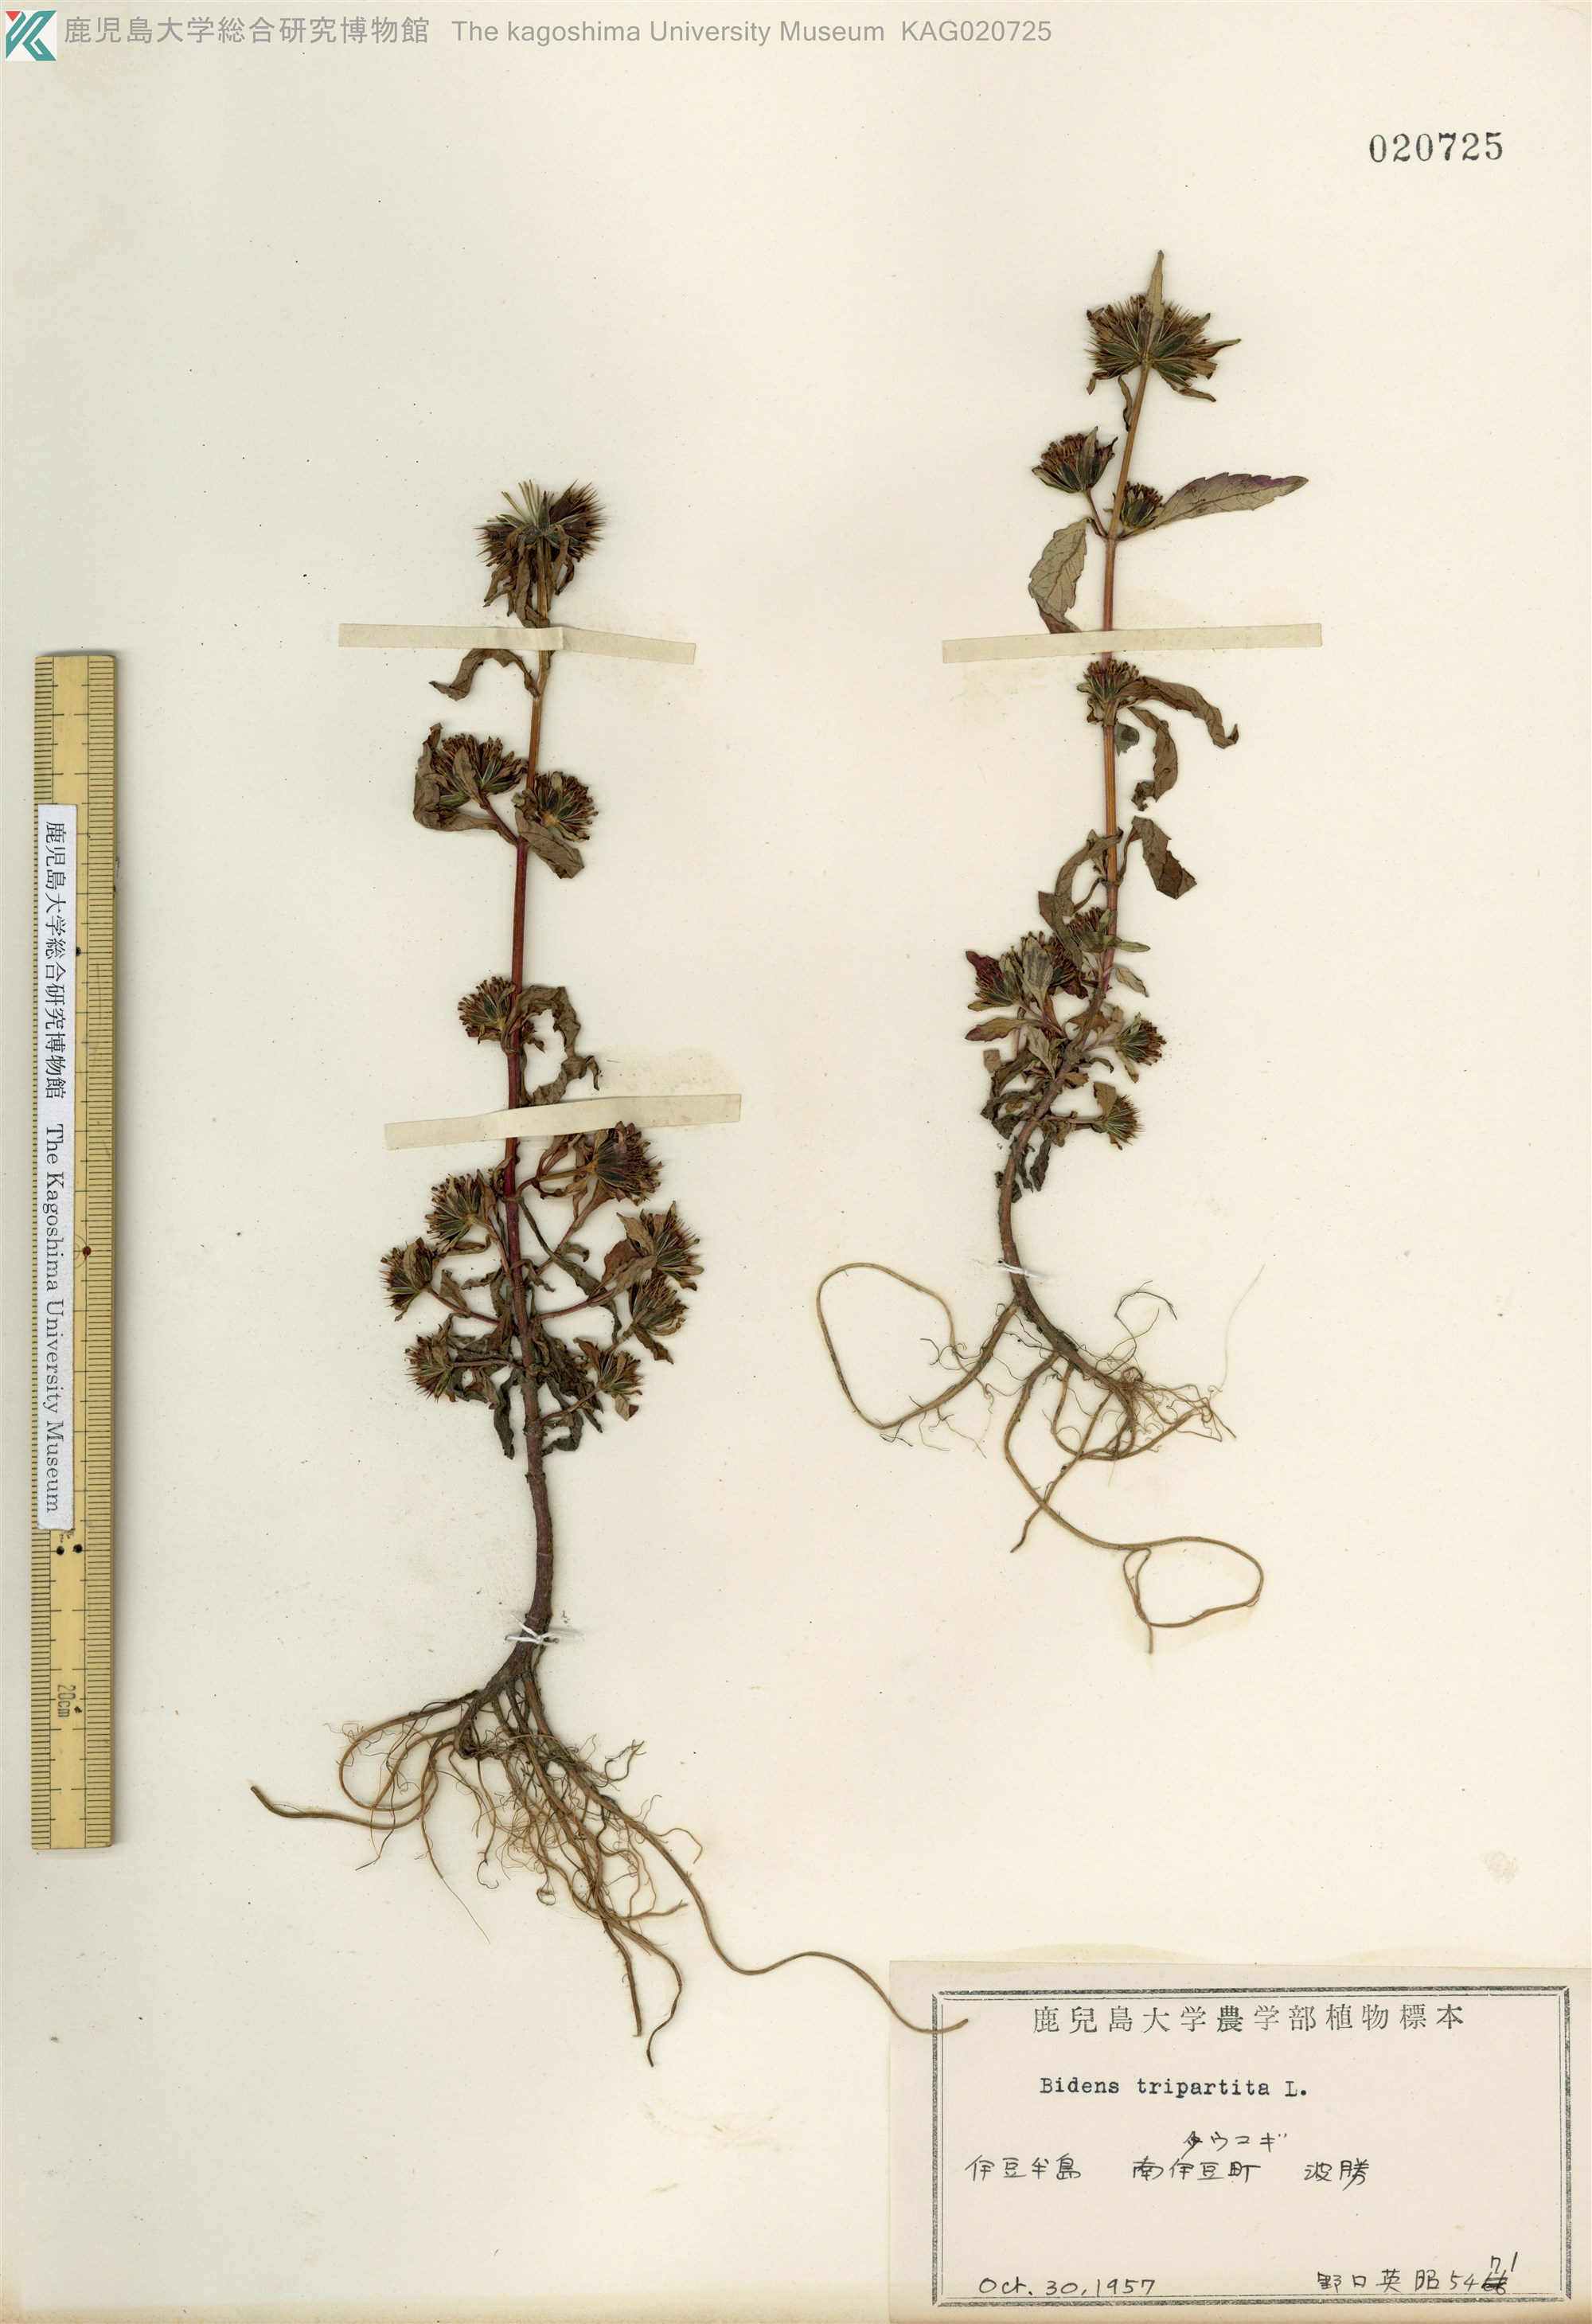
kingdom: Plantae
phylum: Tracheophyta
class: Magnoliopsida
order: Asterales
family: Asteraceae
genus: Bidens
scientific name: Bidens tripartita
